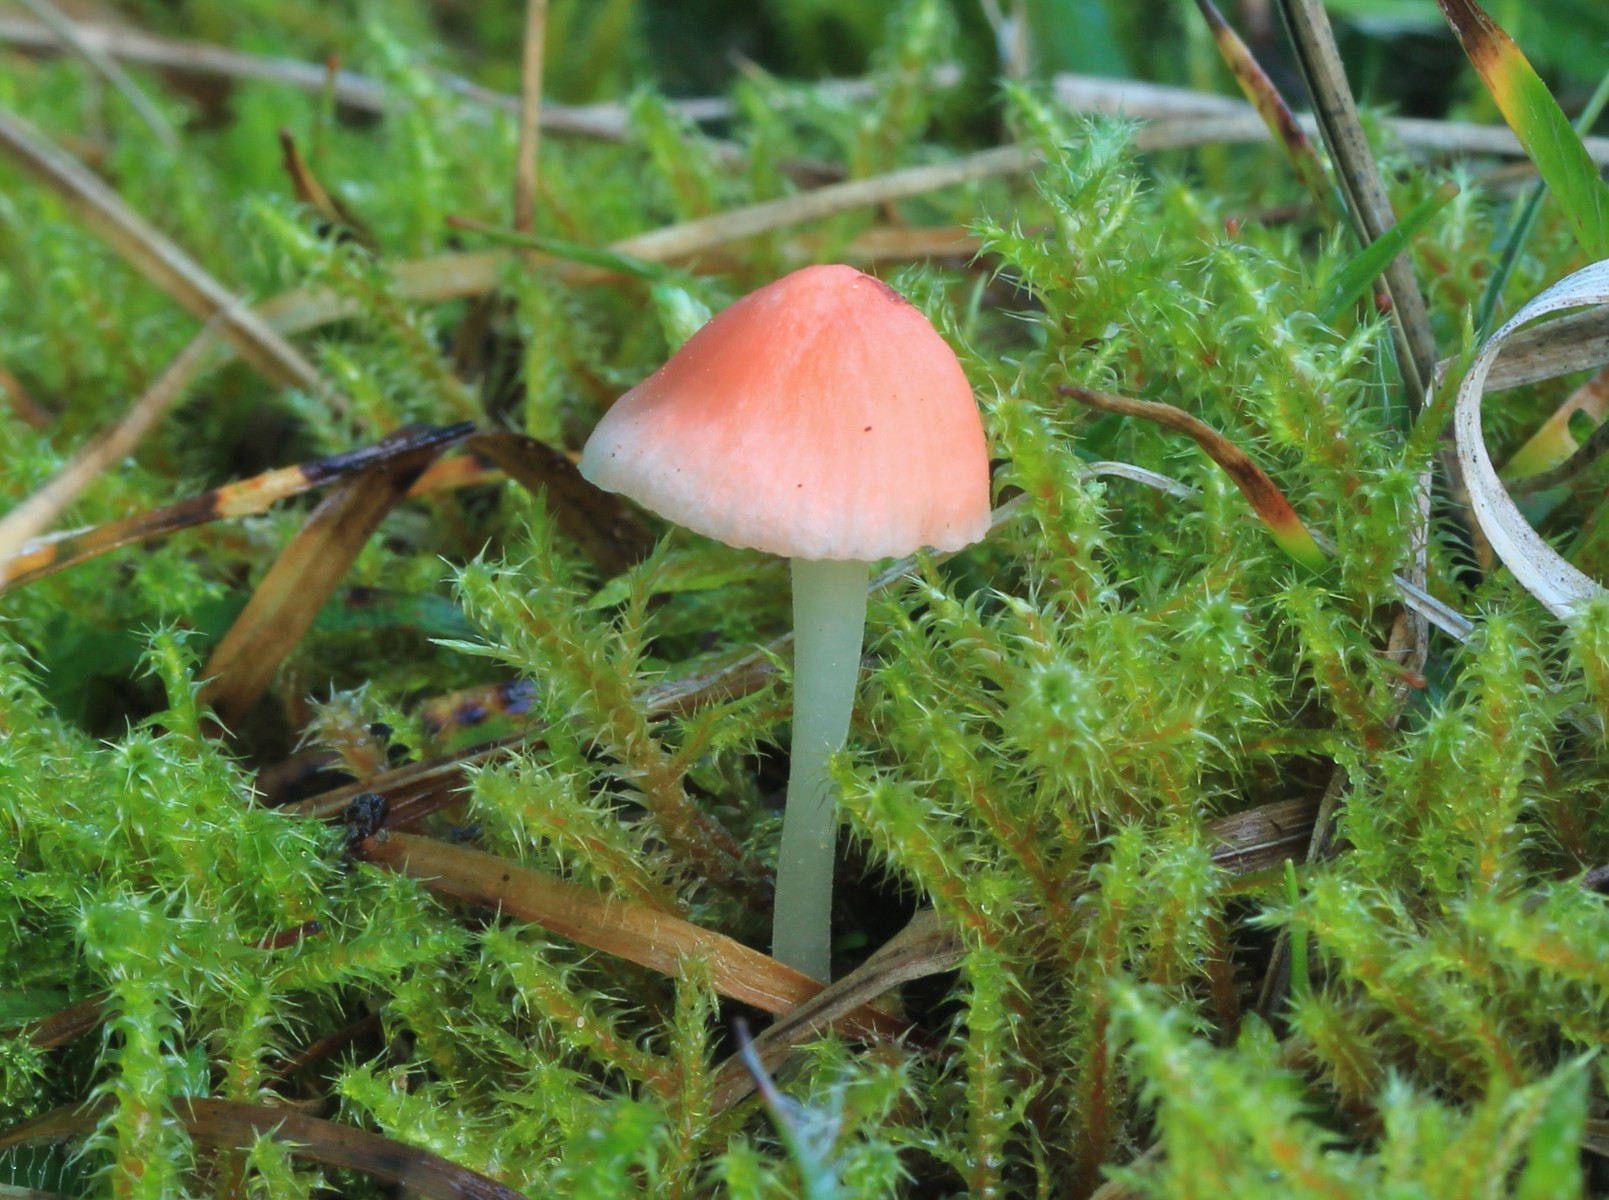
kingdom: Fungi
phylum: Basidiomycota
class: Agaricomycetes
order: Agaricales
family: Mycenaceae
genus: Atheniella
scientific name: Atheniella adonis
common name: rønnerød huesvamp
